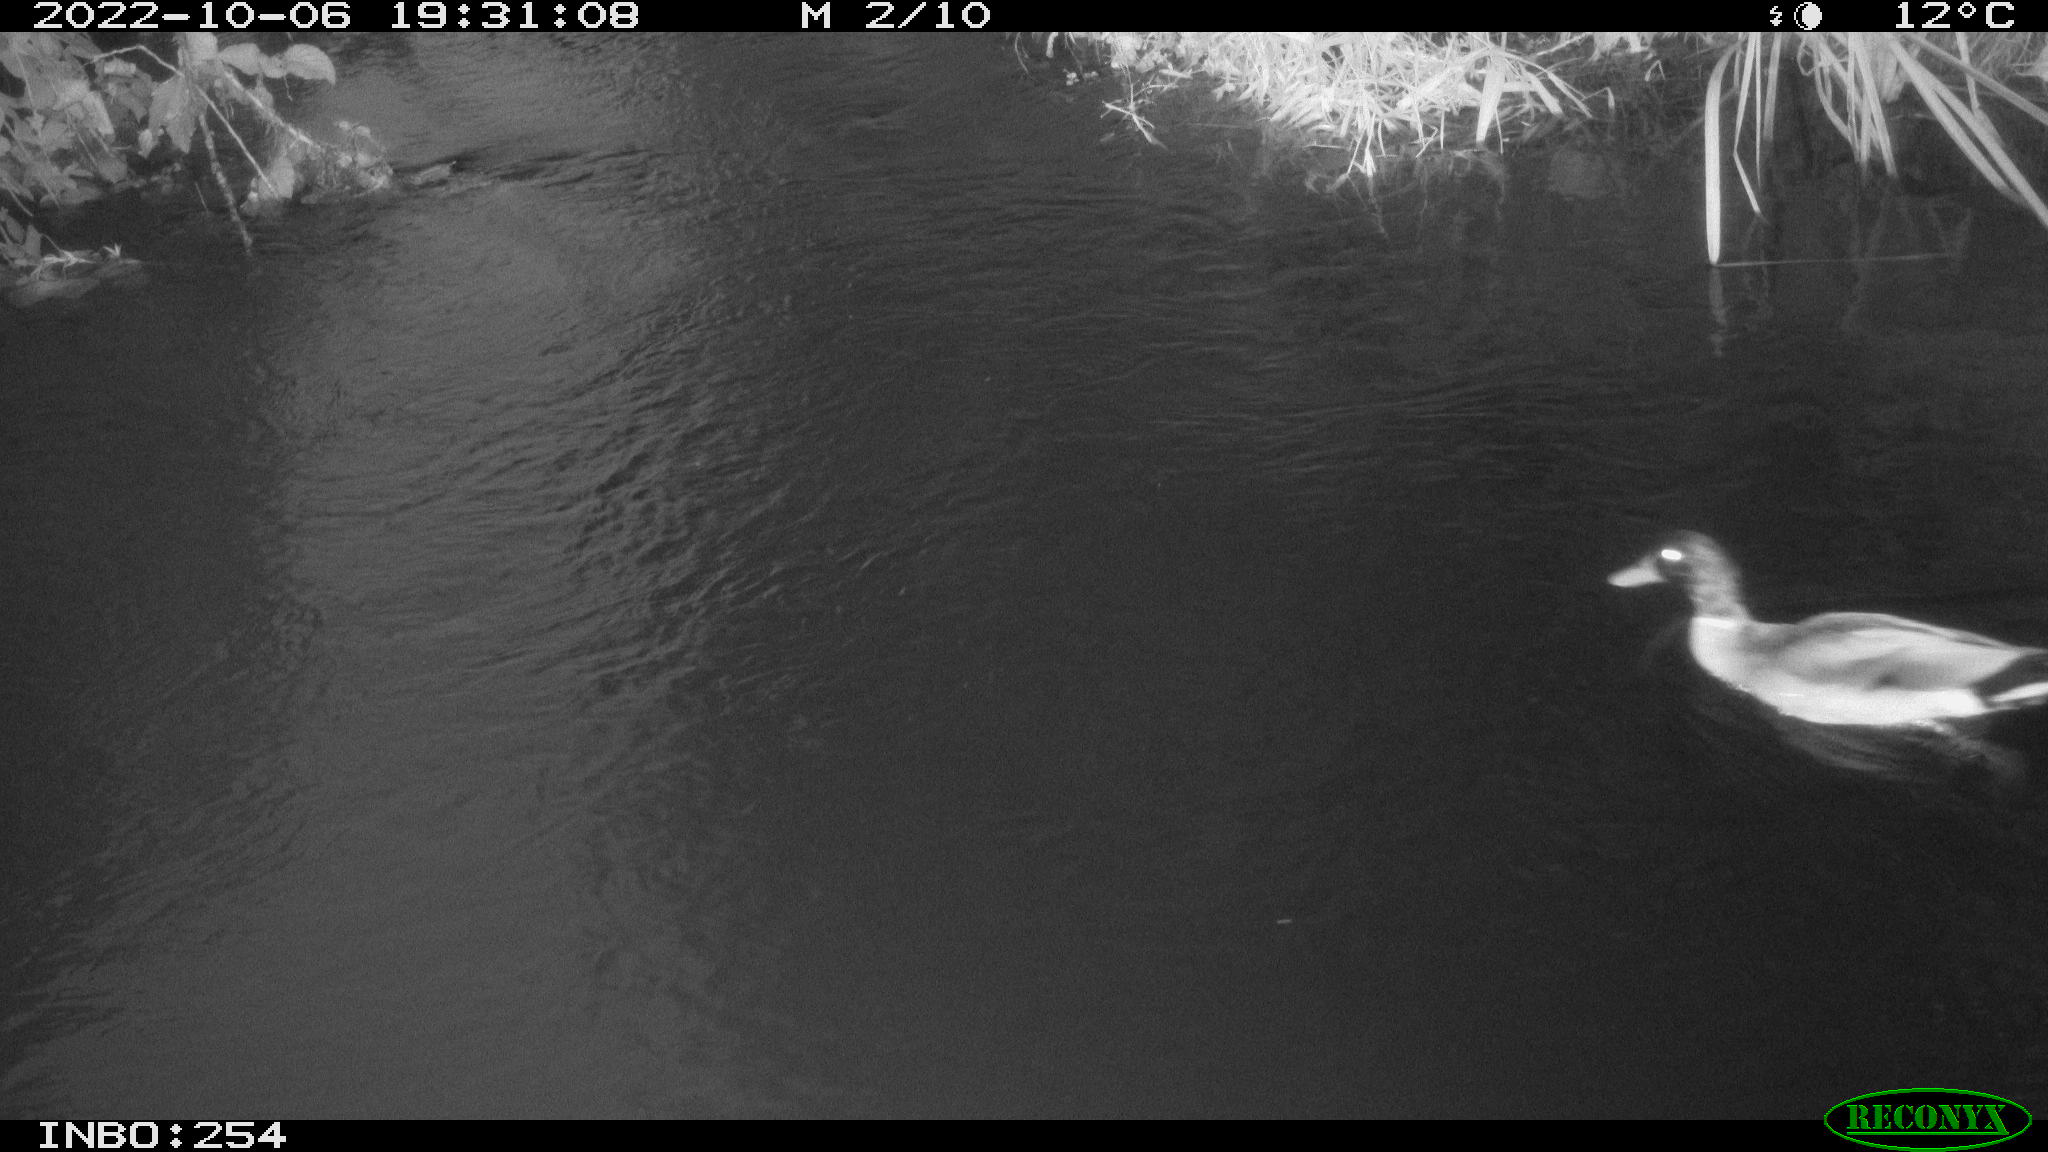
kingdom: Animalia
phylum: Chordata
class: Aves
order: Anseriformes
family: Anatidae
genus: Anas
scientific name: Anas
